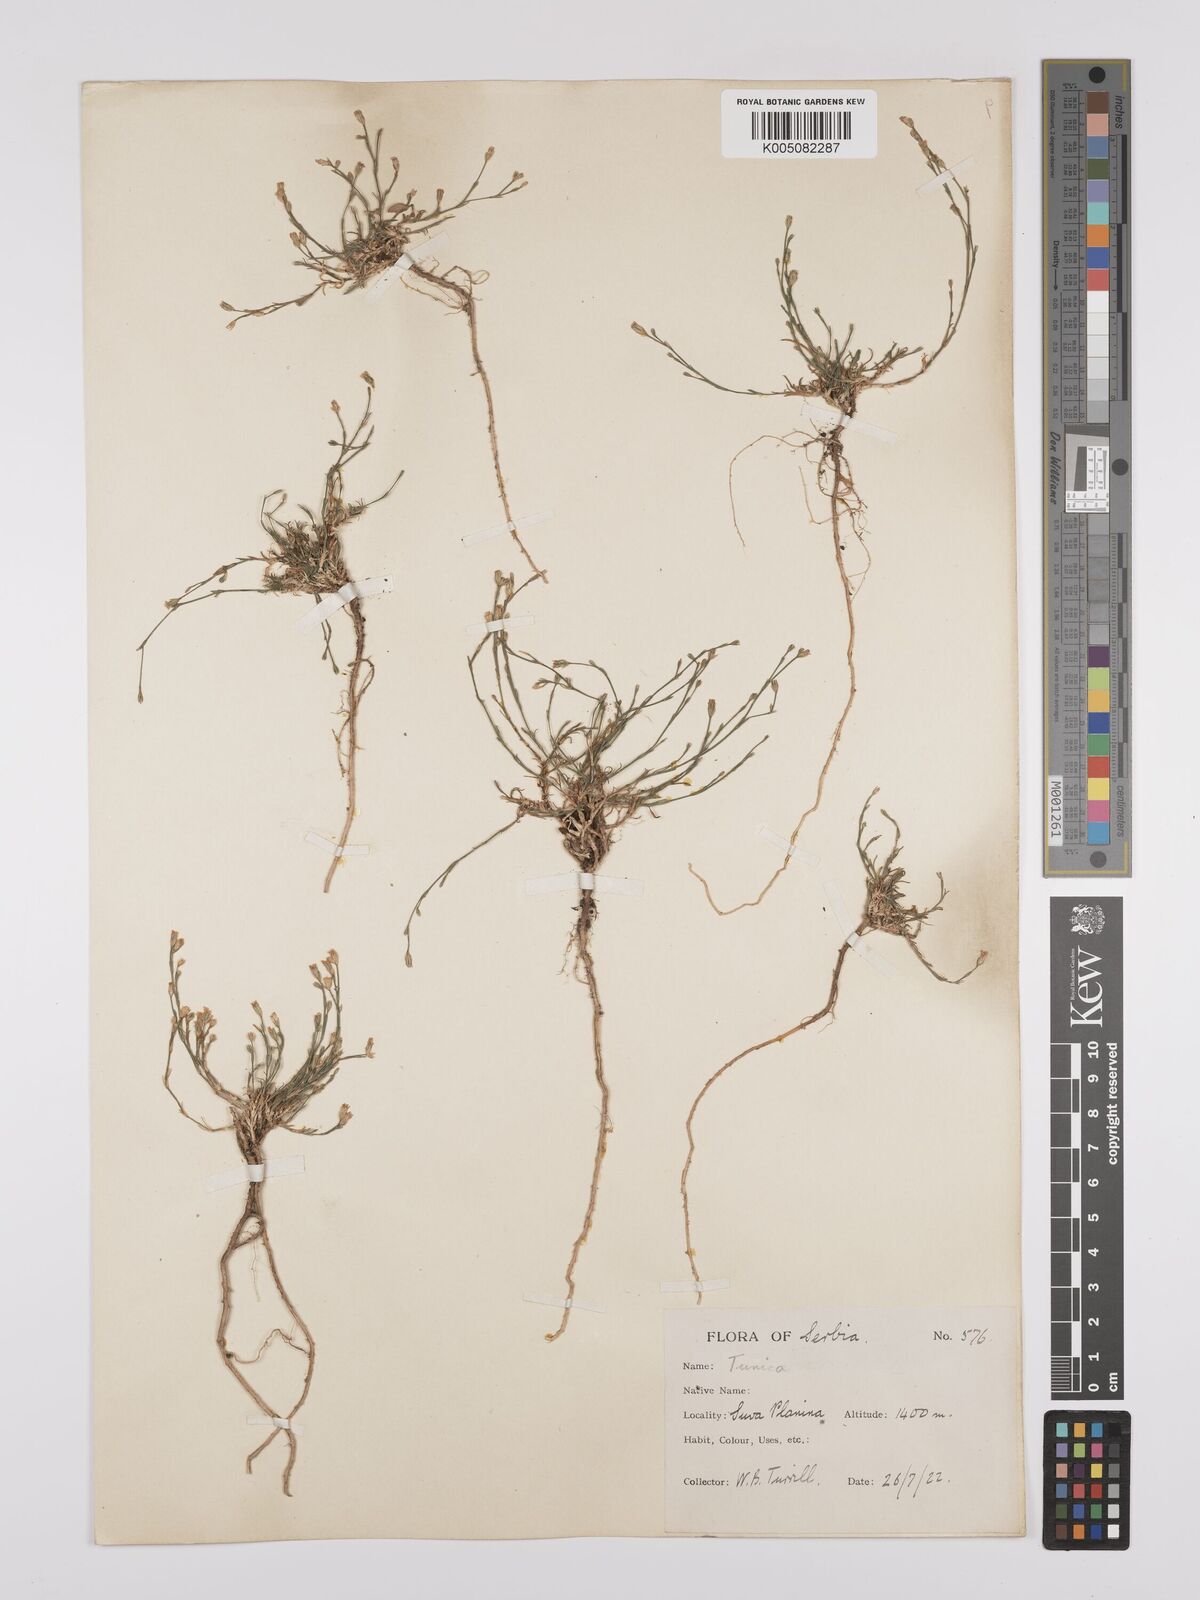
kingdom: Plantae
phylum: Tracheophyta
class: Magnoliopsida
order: Caryophyllales
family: Caryophyllaceae
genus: Petrorhagia
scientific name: Petrorhagia saxifraga
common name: Tunicflower
